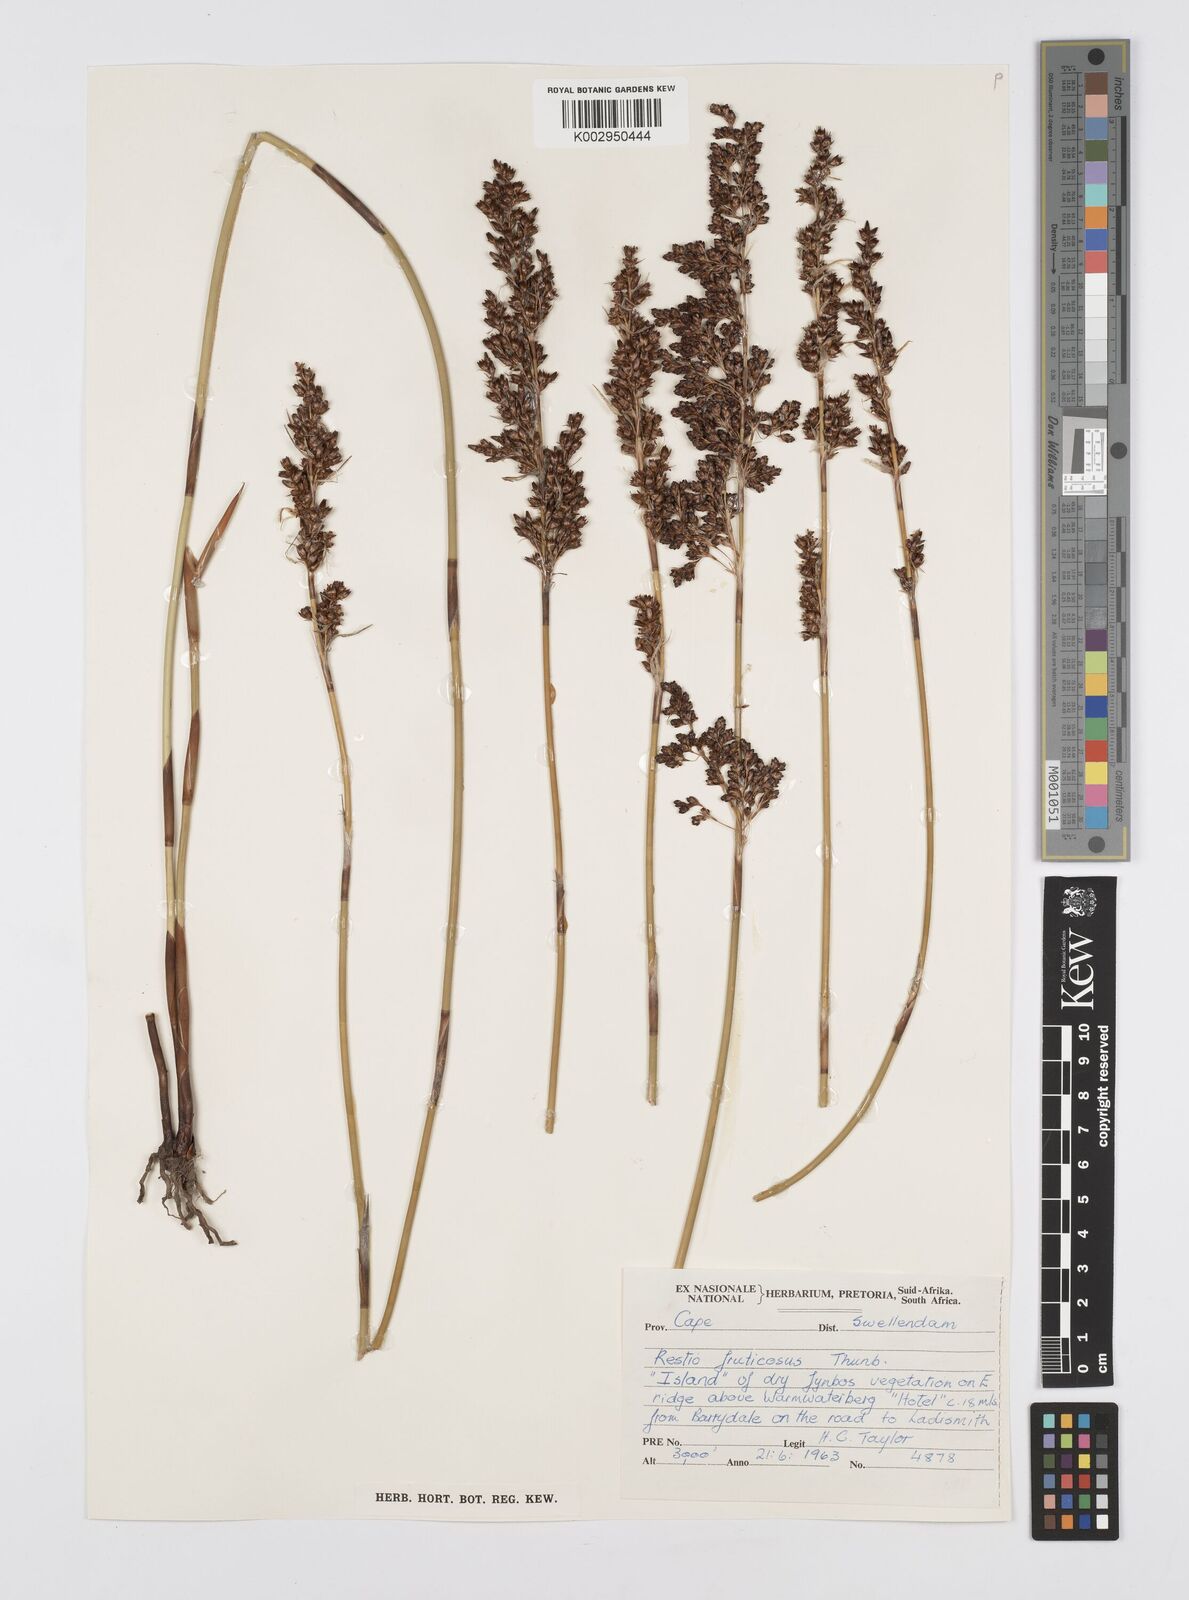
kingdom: Plantae
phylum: Tracheophyta
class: Liliopsida
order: Poales
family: Restionaceae
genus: Rhodocoma
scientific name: Rhodocoma fruticosa
